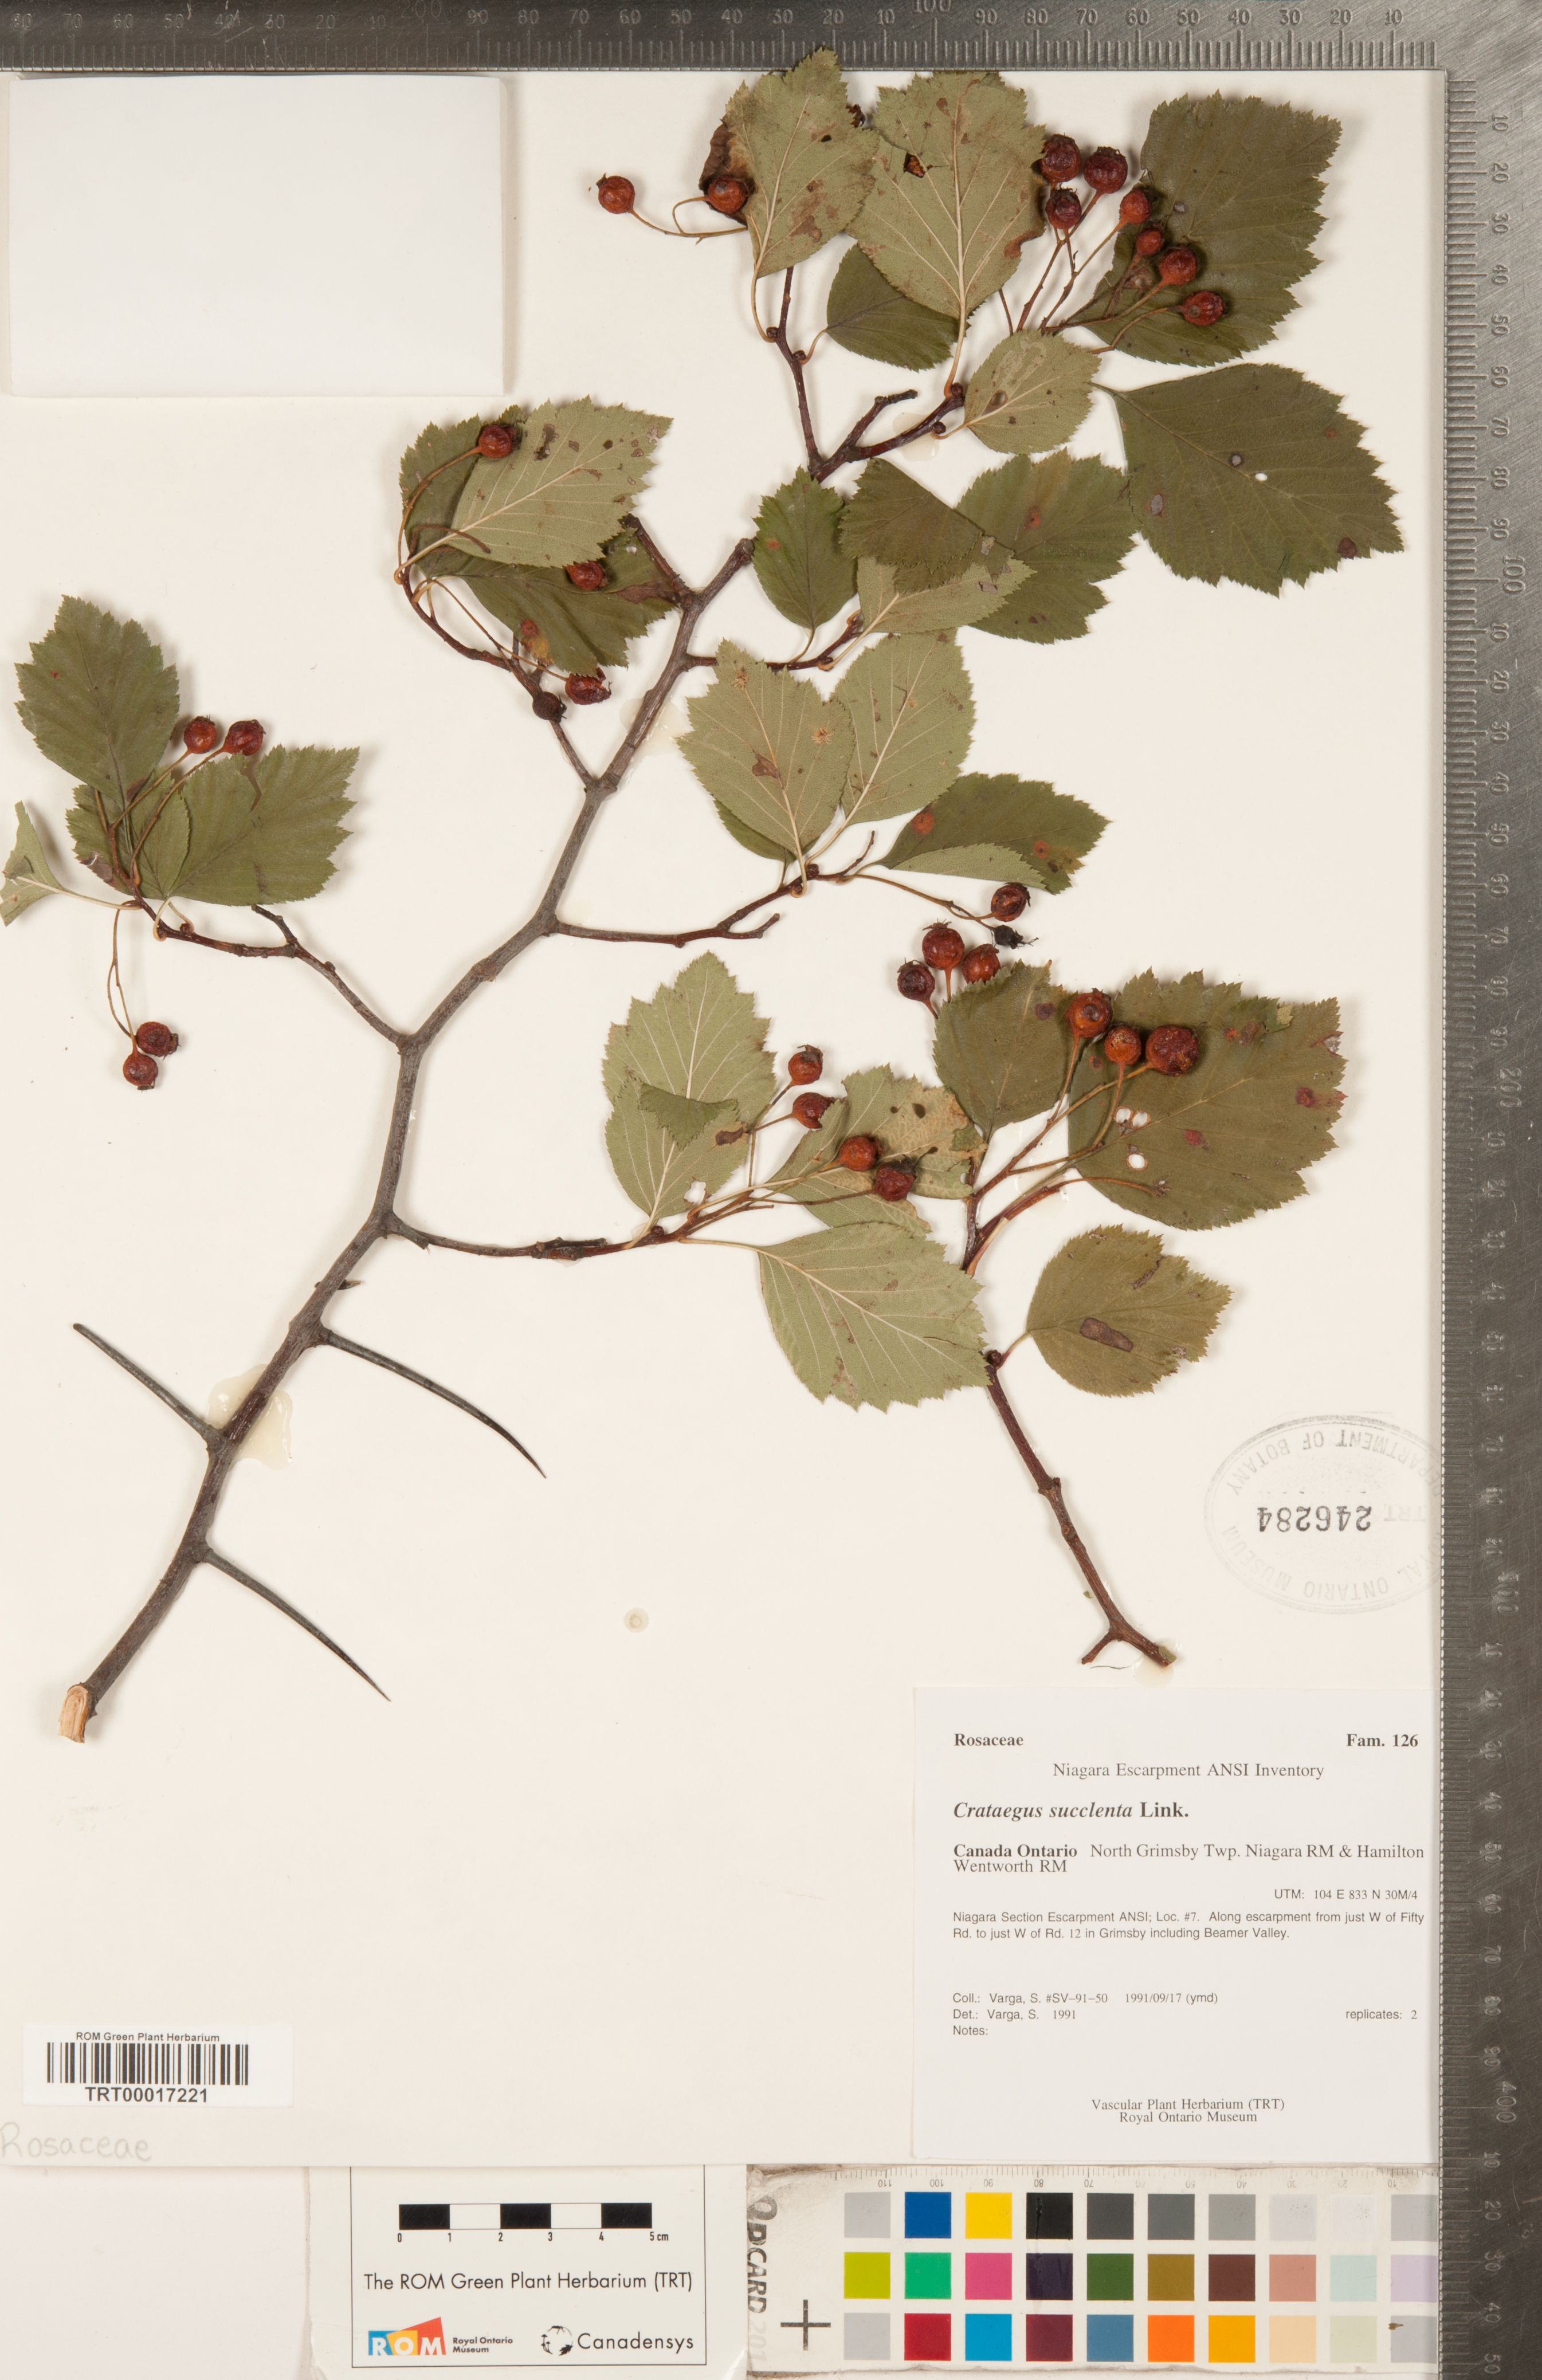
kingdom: Plantae
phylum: Tracheophyta
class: Magnoliopsida
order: Rosales
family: Rosaceae
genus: Crataegus
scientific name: Crataegus succulenta
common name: Fleshy hawthorn
